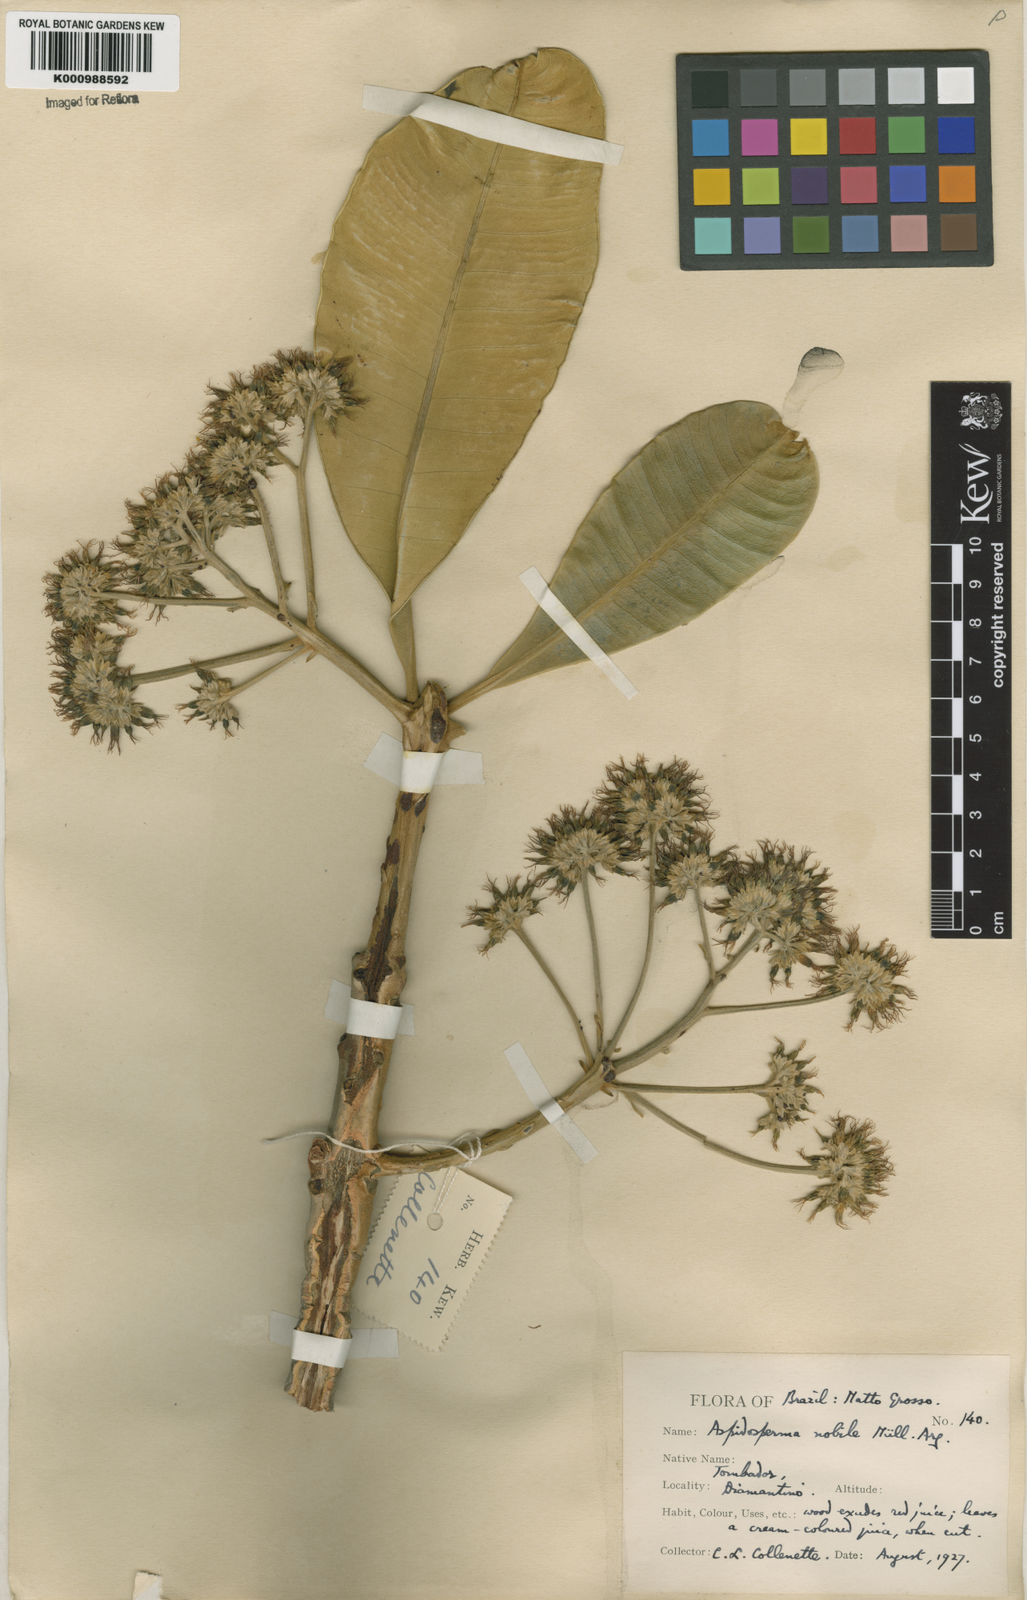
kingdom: Plantae
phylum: Tracheophyta
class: Magnoliopsida
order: Gentianales
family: Apocynaceae
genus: Aspidosperma
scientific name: Aspidosperma
